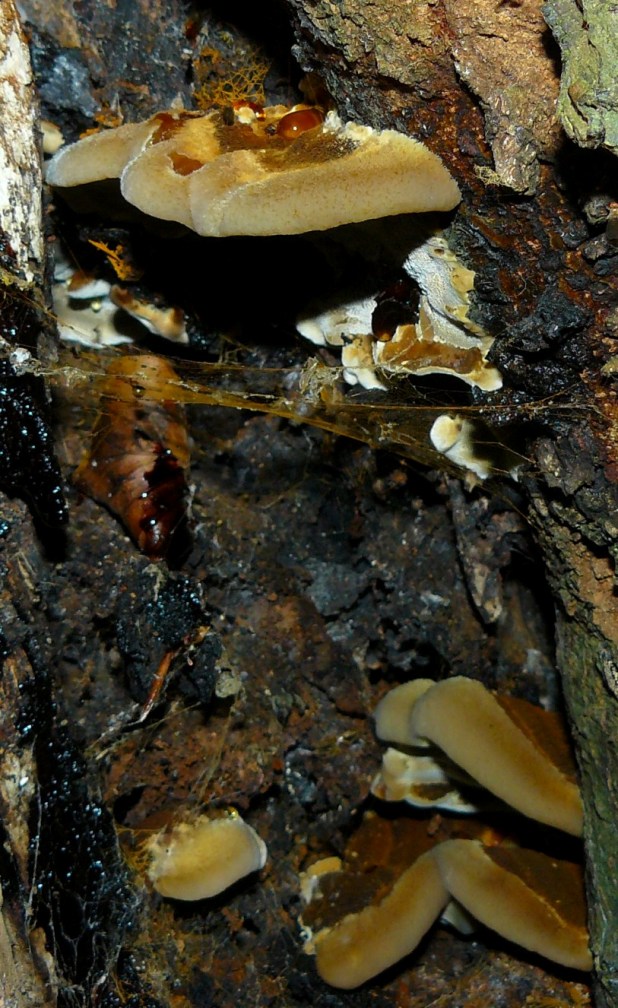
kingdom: Fungi
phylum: Basidiomycota
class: Agaricomycetes
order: Hymenochaetales
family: Hymenochaetaceae
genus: Inonotus
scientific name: Inonotus cuticularis
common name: kroghåret spejlporesvamp
